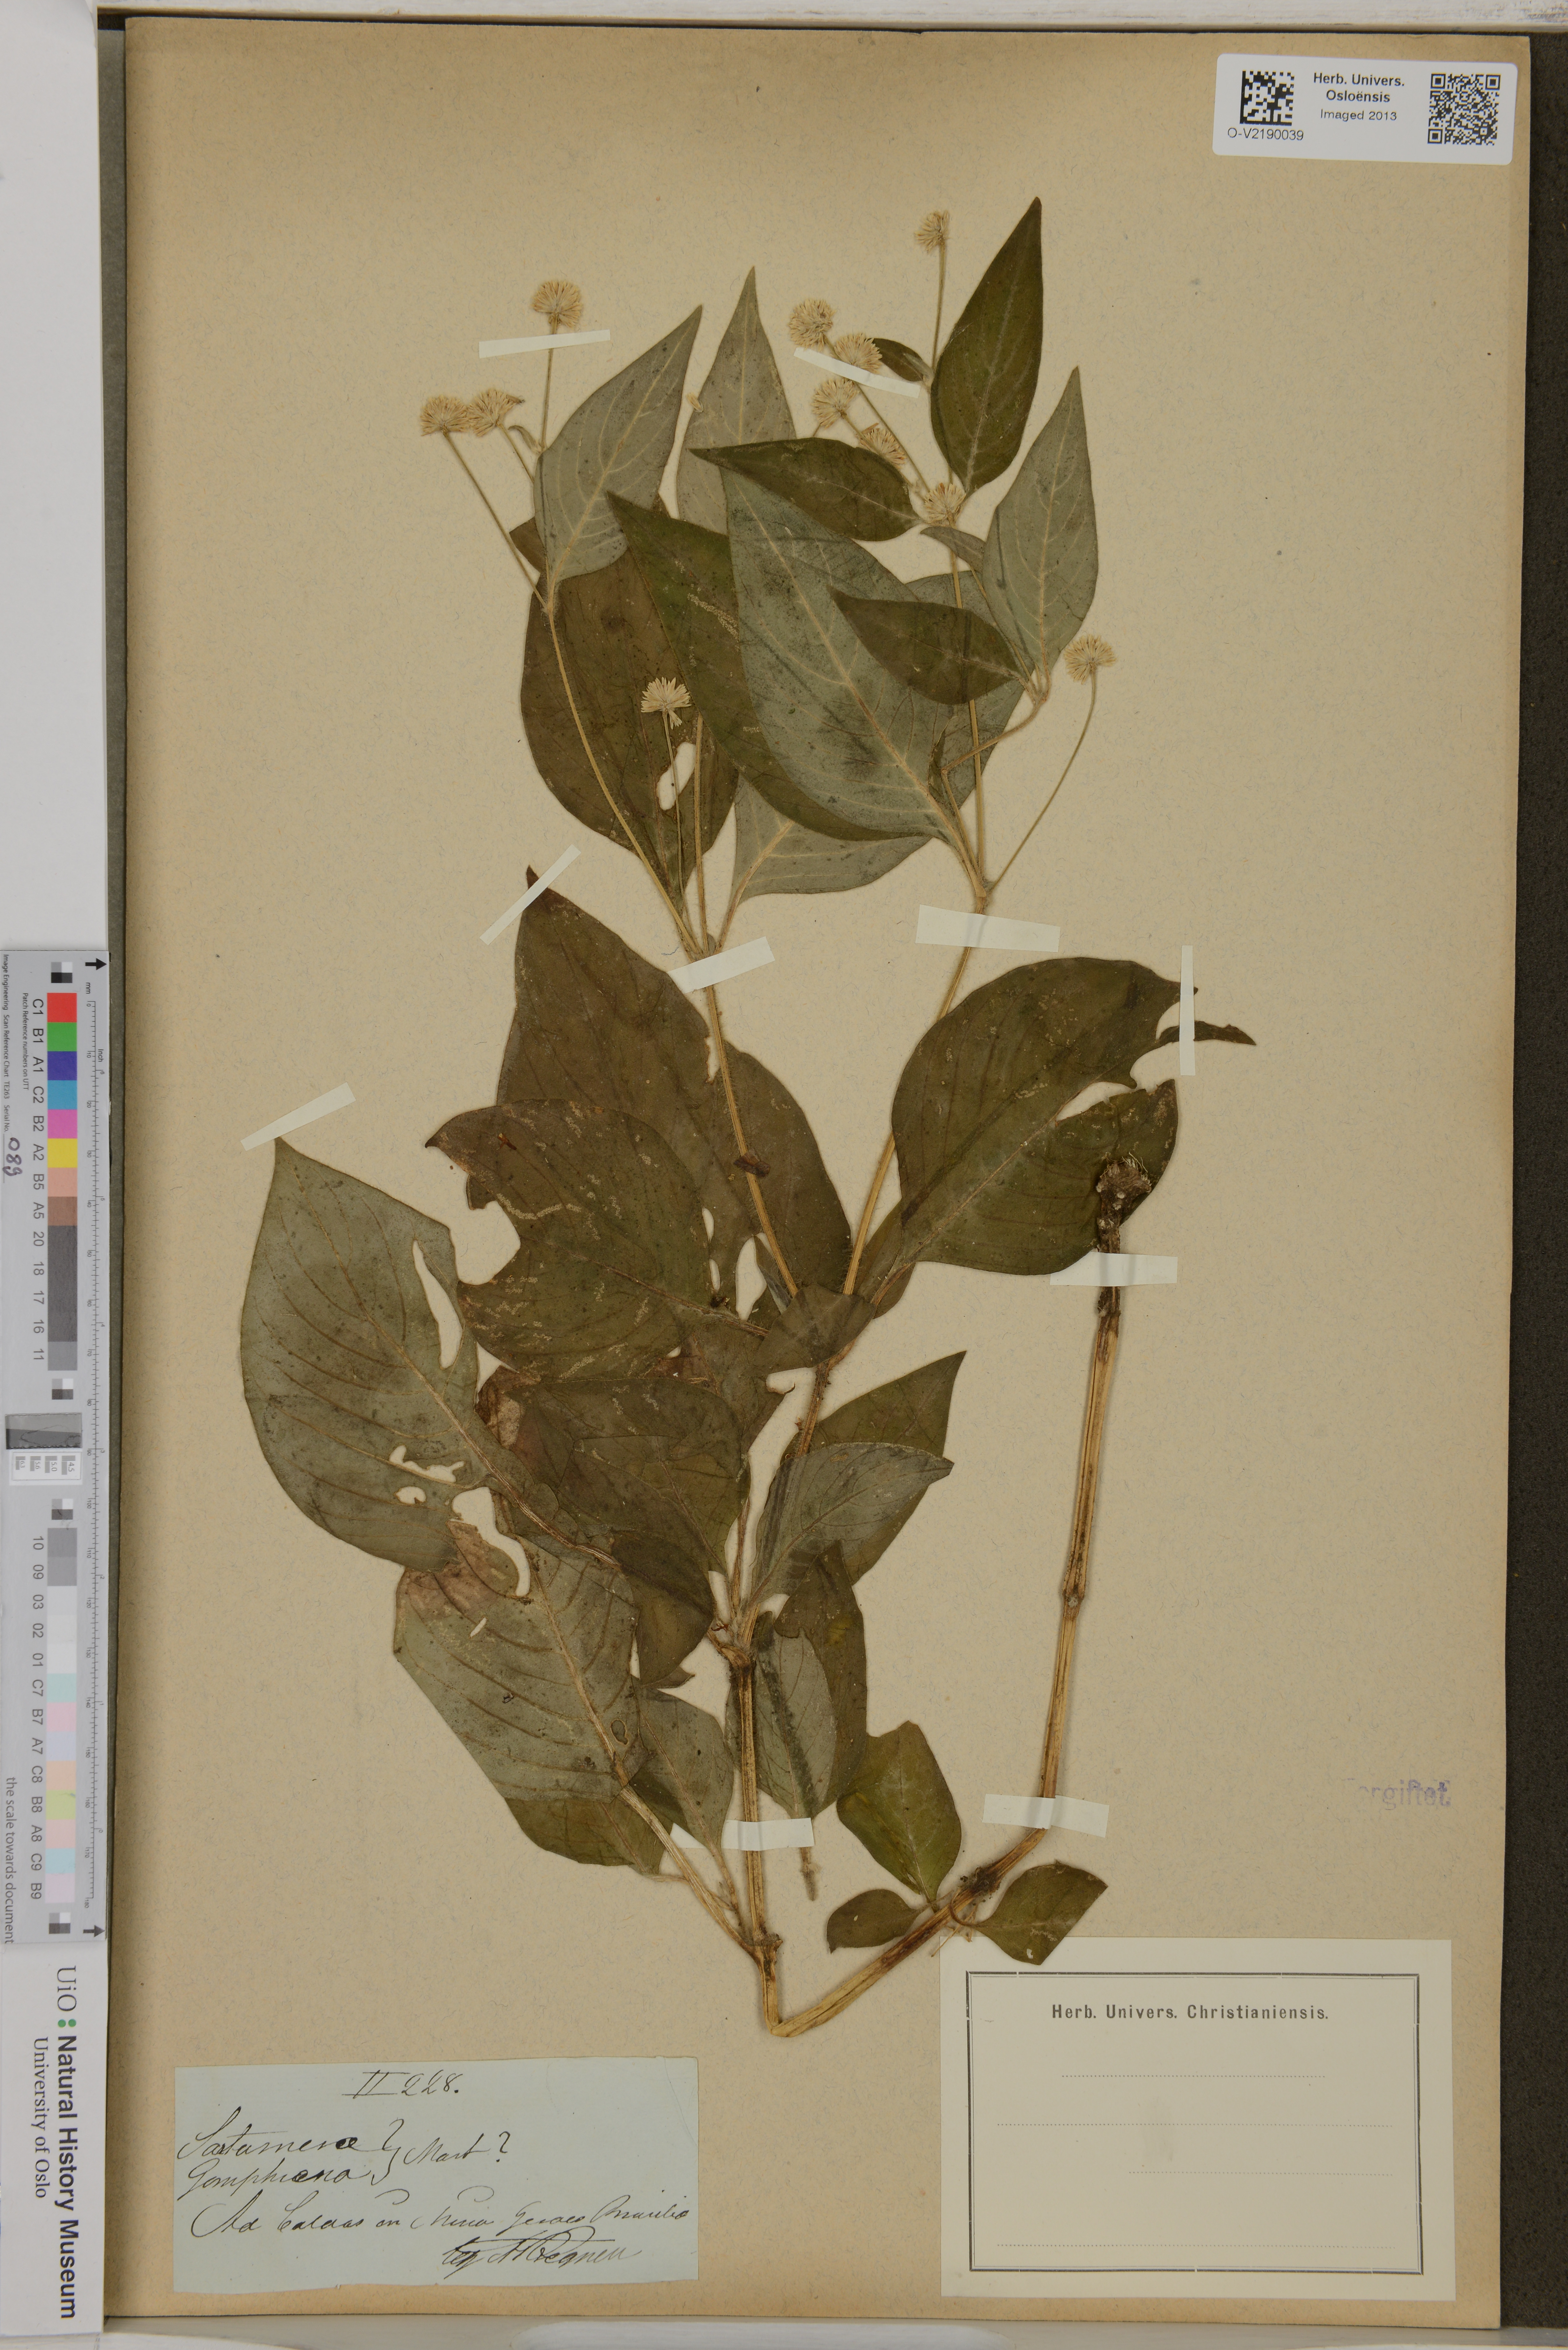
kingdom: Plantae
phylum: Tracheophyta
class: Magnoliopsida
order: Caryophyllales
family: Amaranthaceae
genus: Gomphrena
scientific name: Gomphrena
